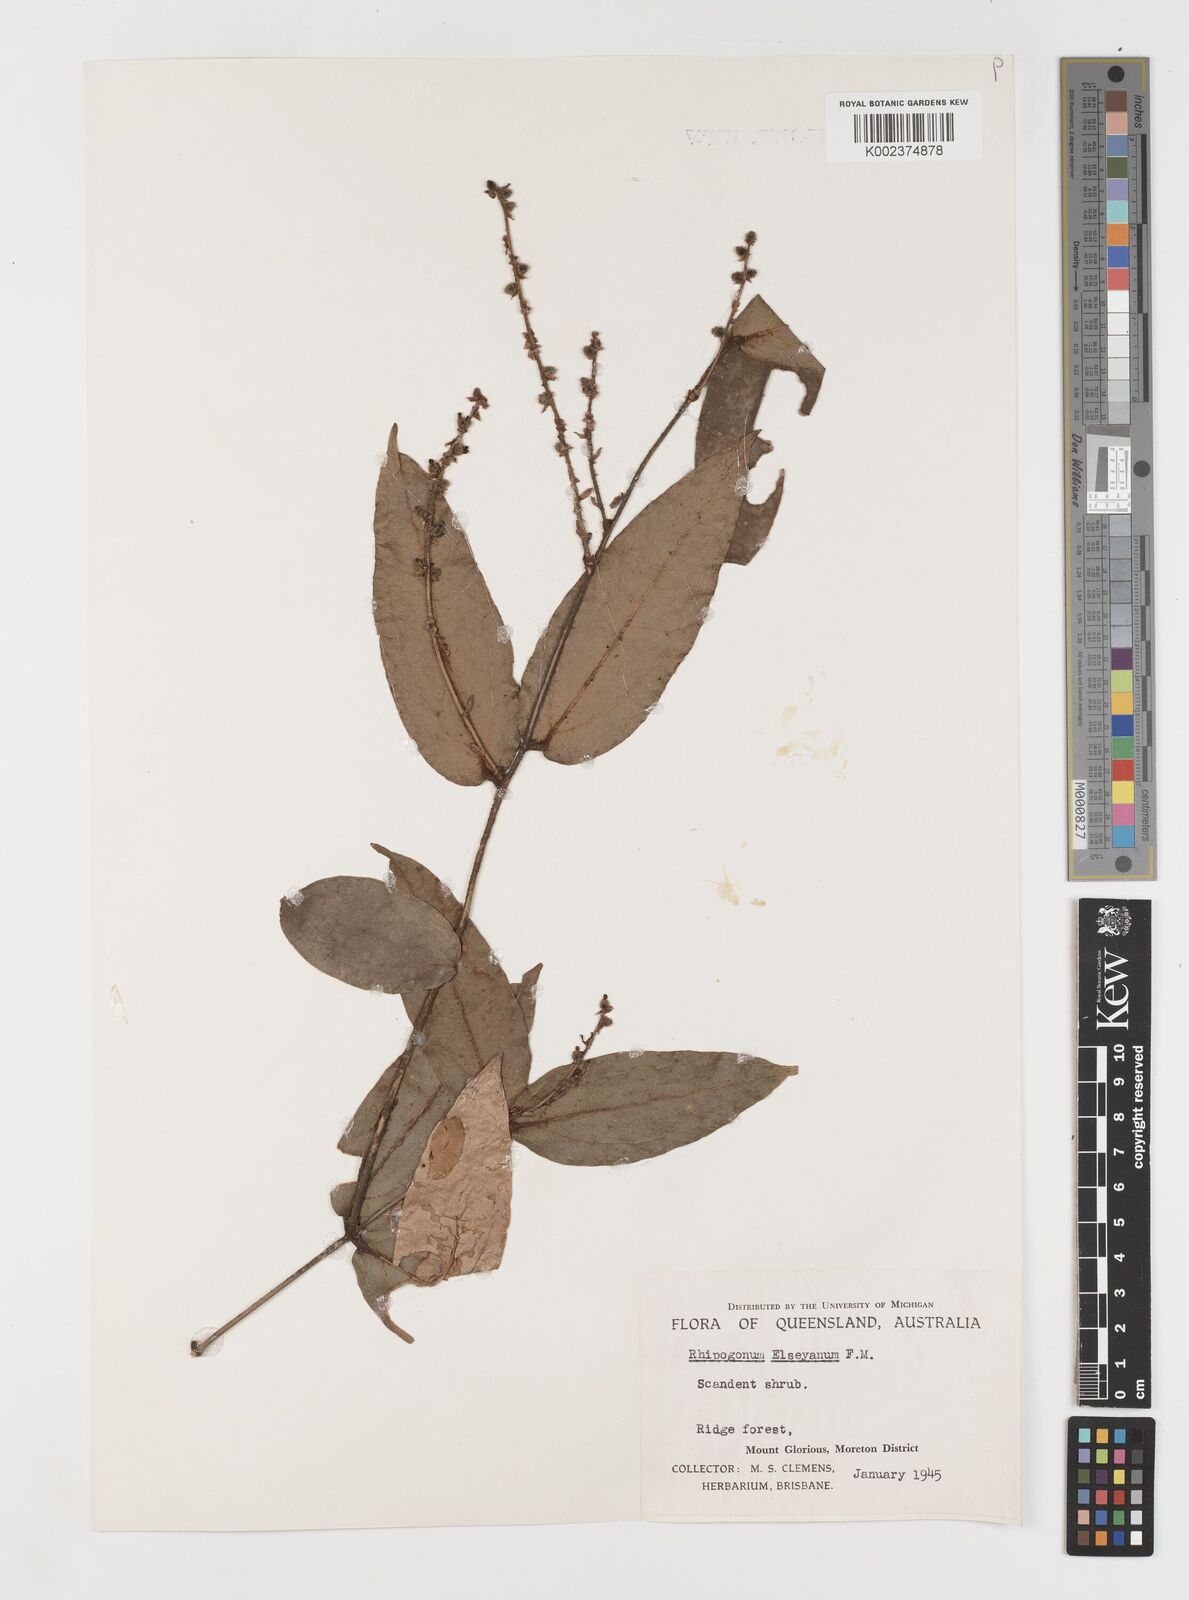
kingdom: Plantae
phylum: Tracheophyta
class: Liliopsida
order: Liliales
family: Ripogonaceae
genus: Ripogonum
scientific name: Ripogonum elseyanum
